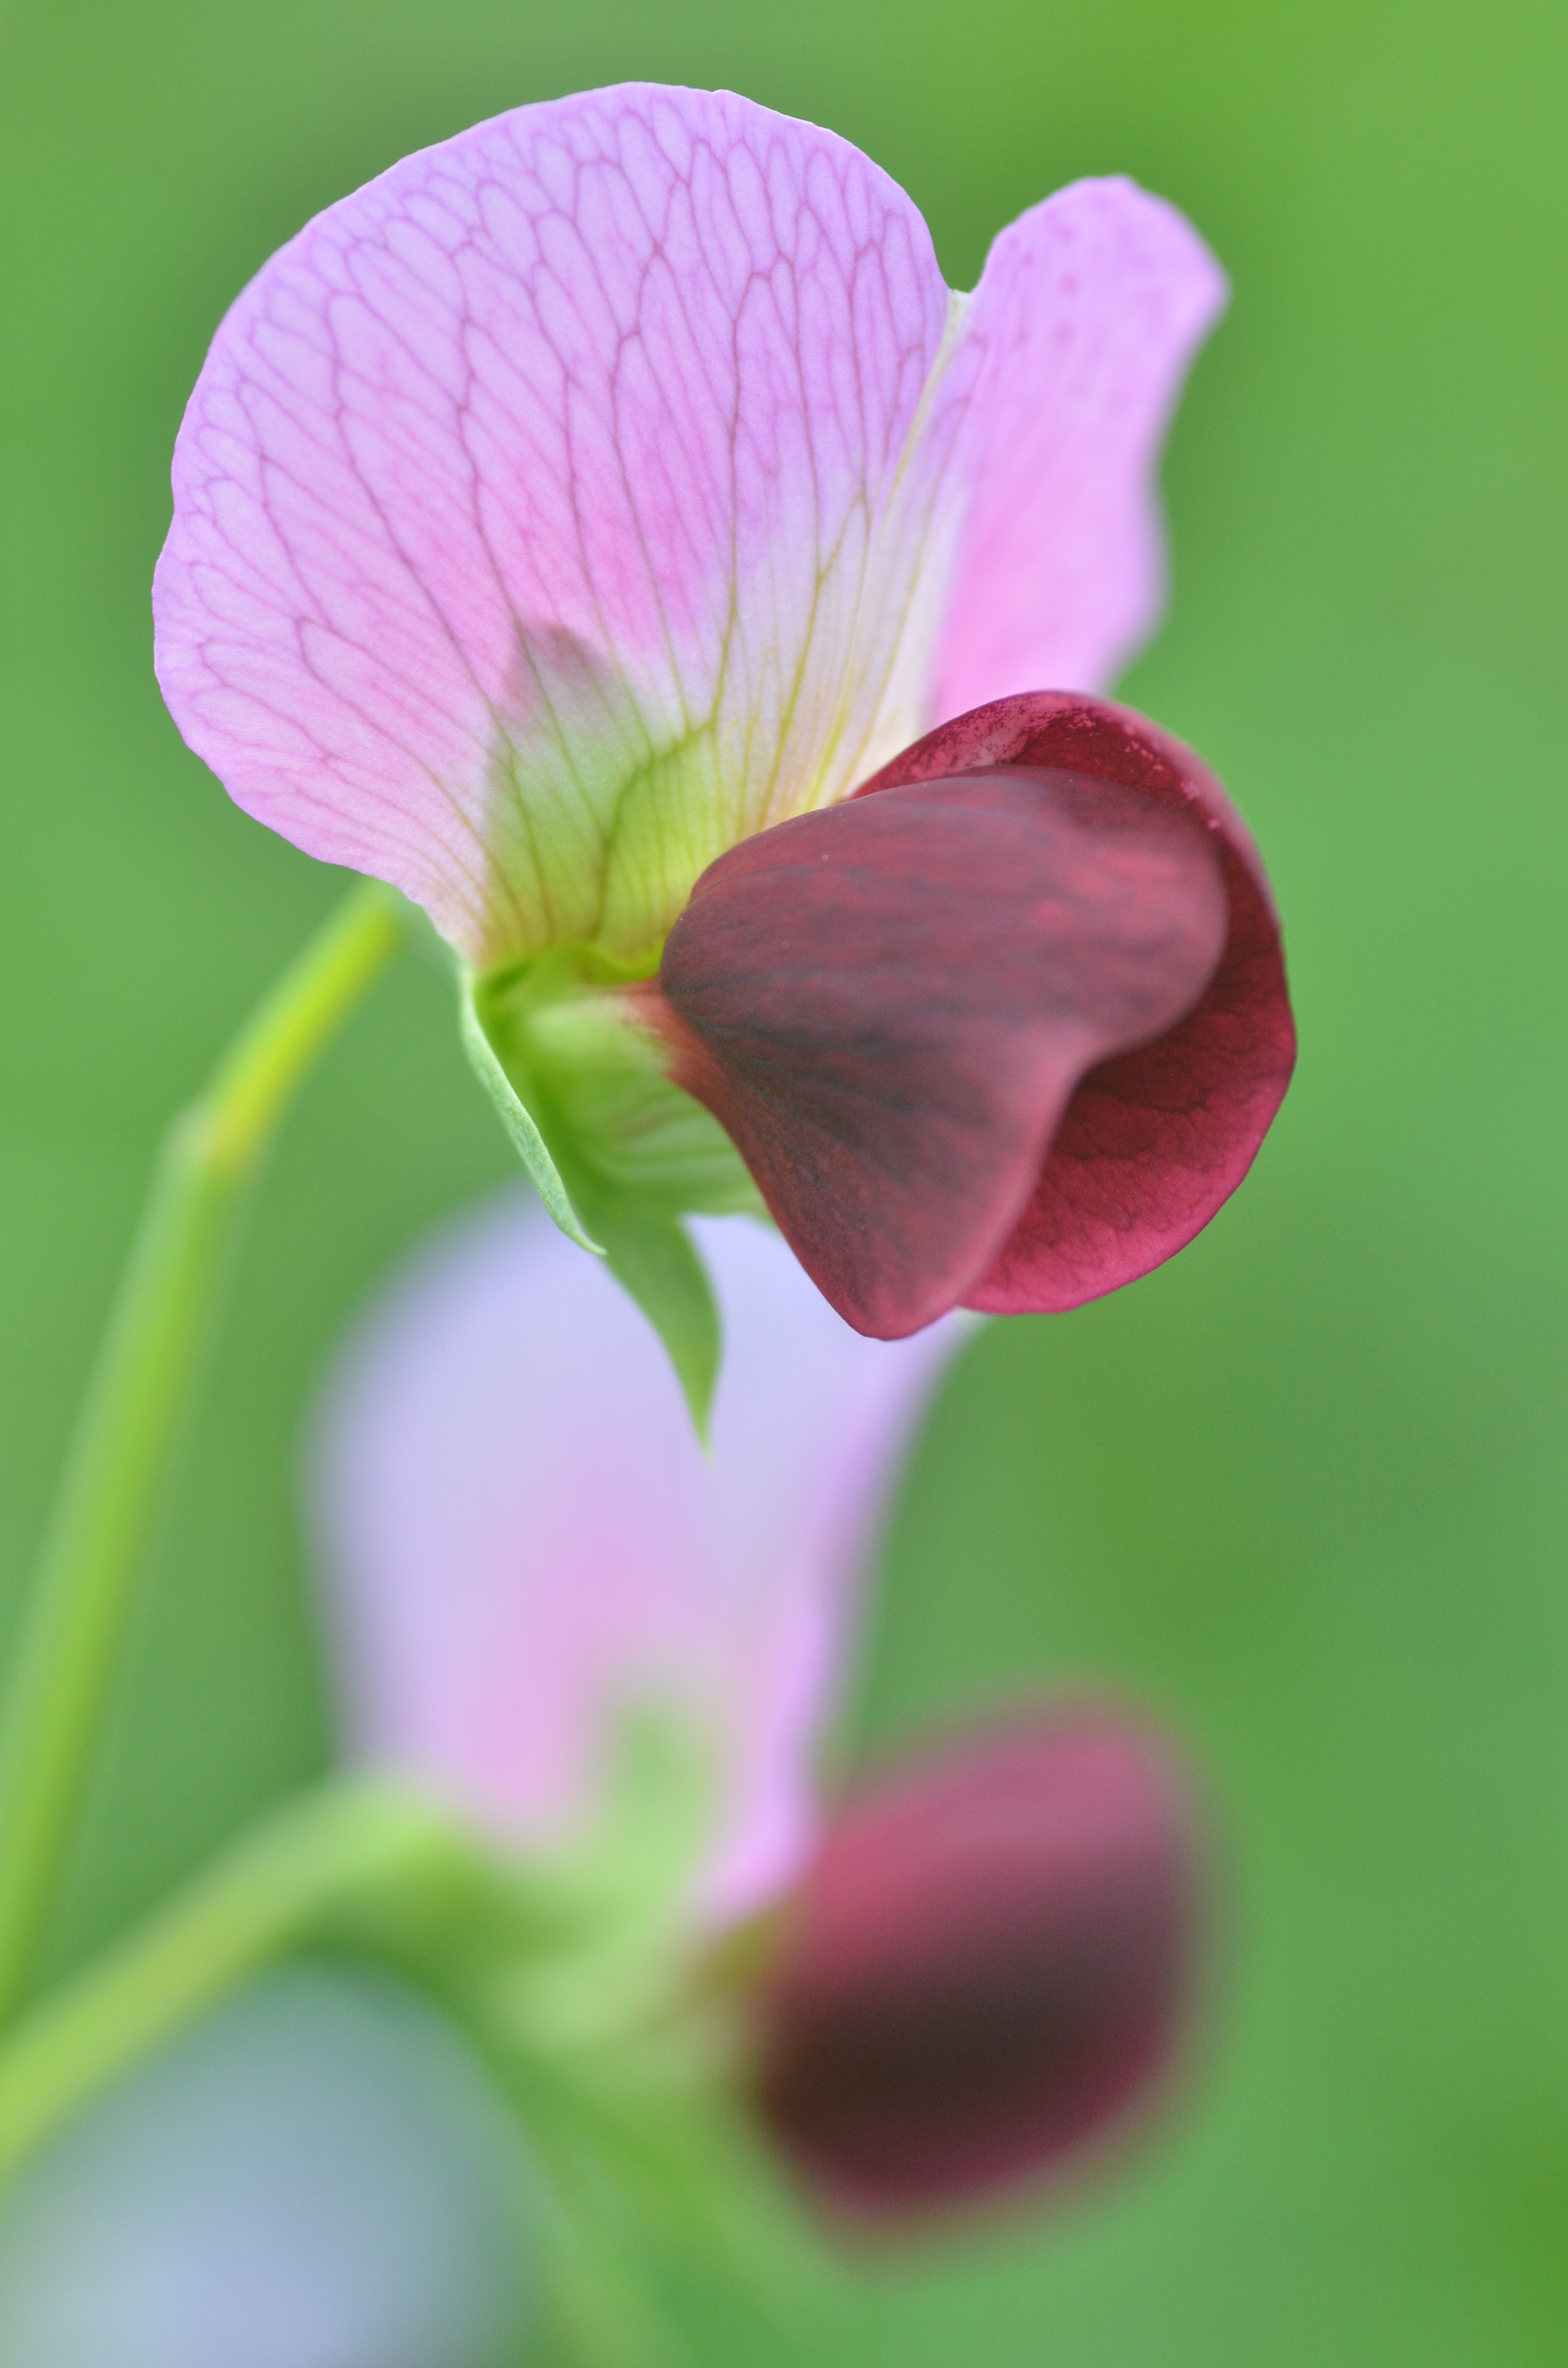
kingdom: Plantae
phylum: Tracheophyta
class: Magnoliopsida
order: Fabales
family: Fabaceae
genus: Lathyrus
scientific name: Lathyrus oleraceus
